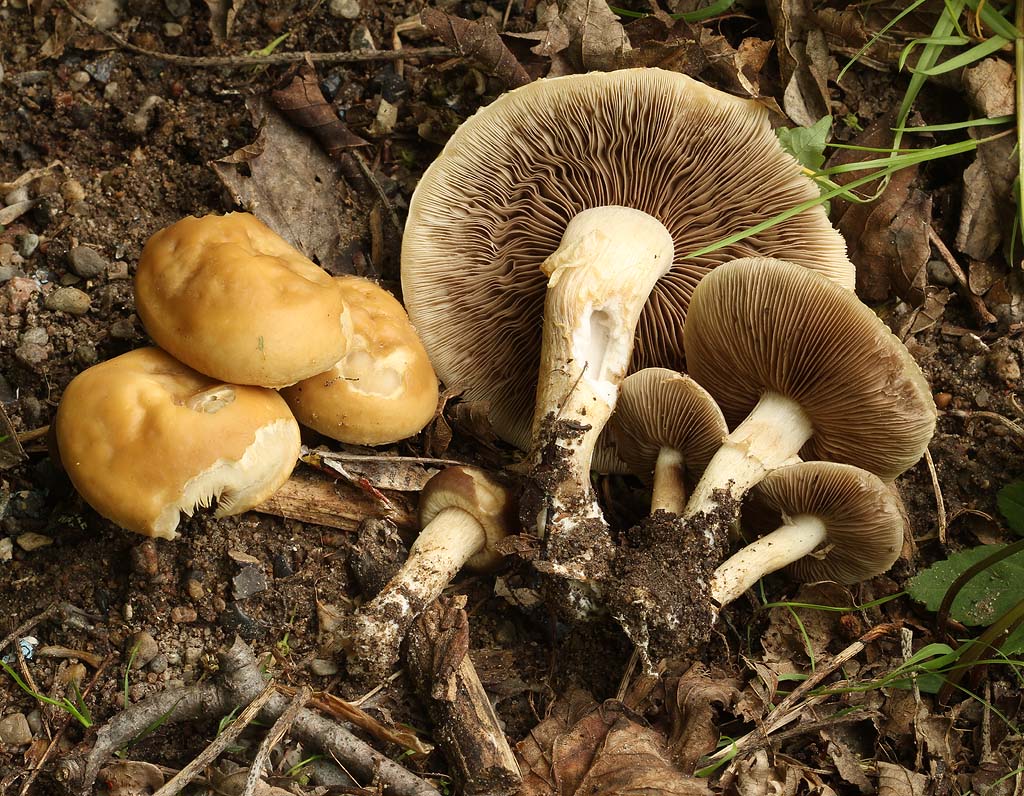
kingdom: Fungi
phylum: Basidiomycota
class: Agaricomycetes
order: Agaricales
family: Strophariaceae
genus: Agrocybe
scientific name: Agrocybe praecox
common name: tidlig agerhat
